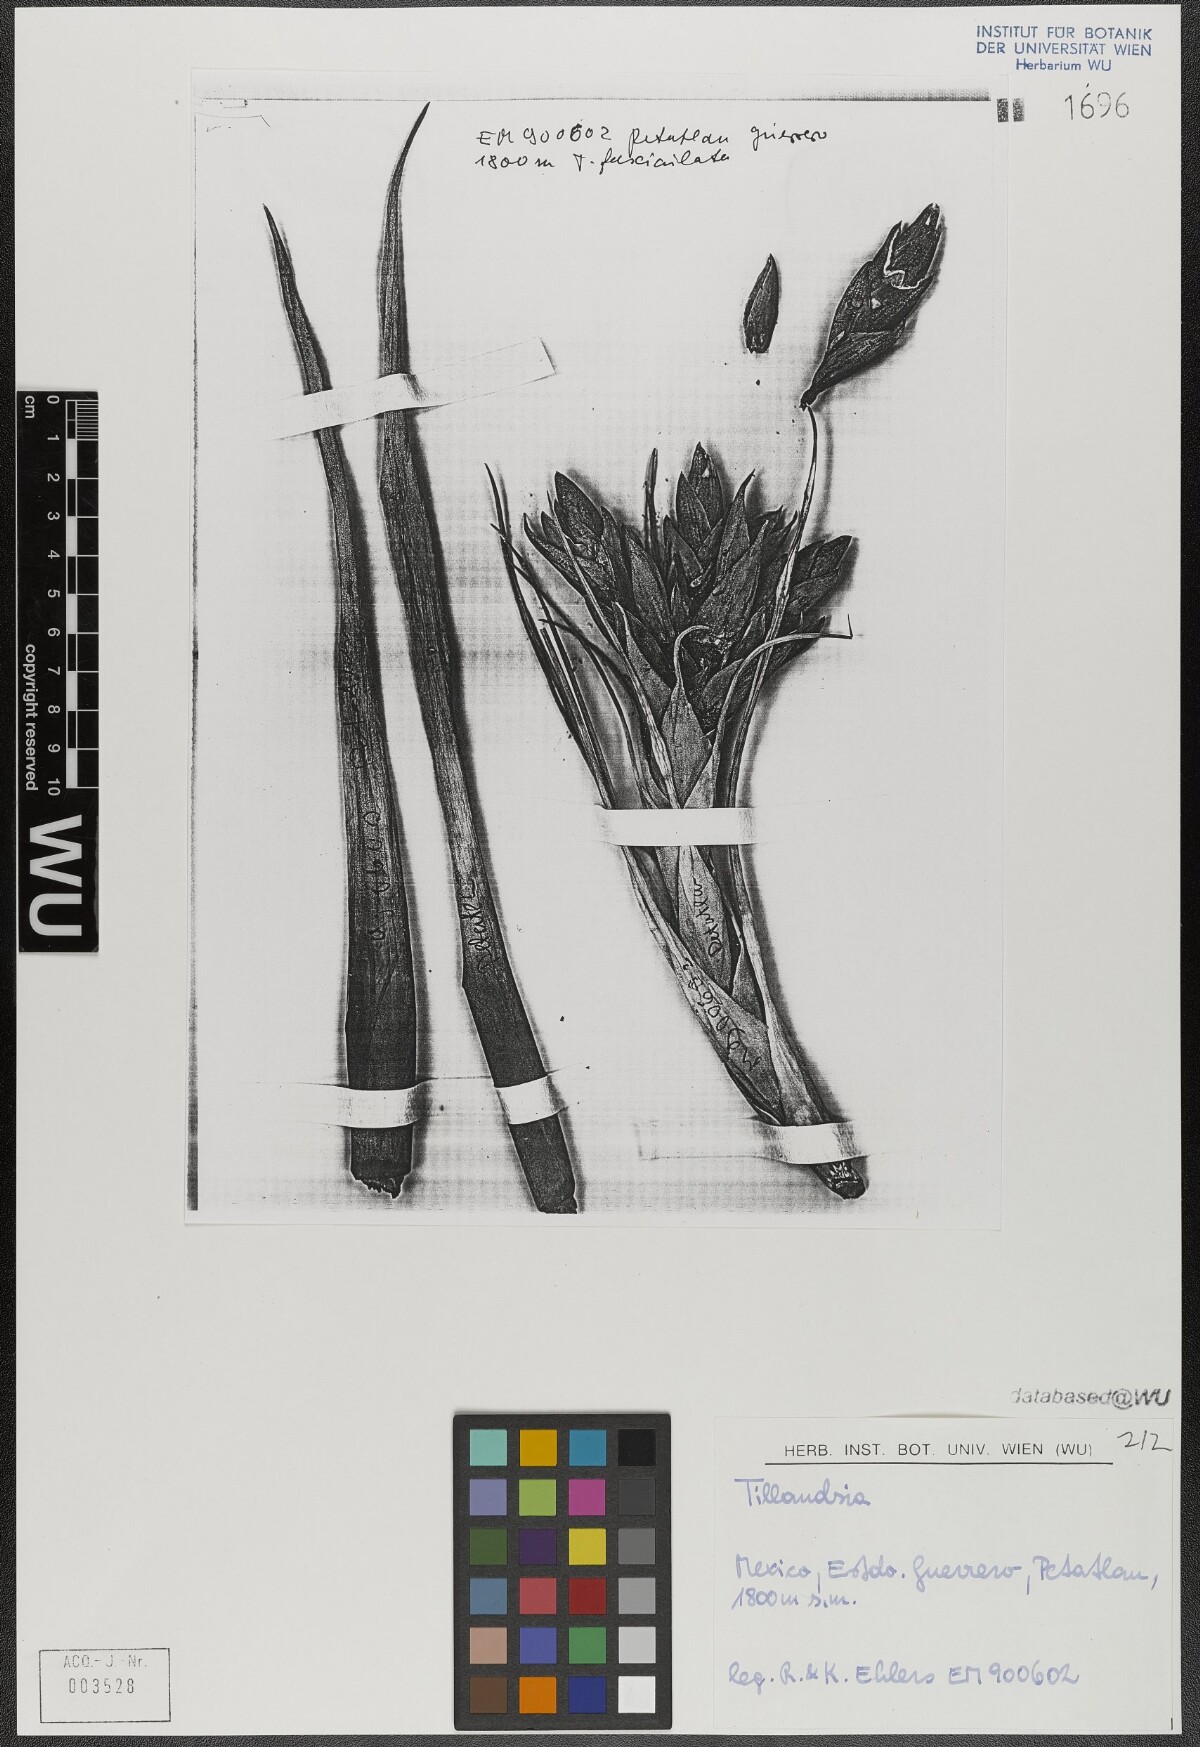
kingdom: Plantae
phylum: Tracheophyta
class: Liliopsida
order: Poales
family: Bromeliaceae
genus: Tillandsia
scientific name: Tillandsia fasciculata
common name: Giant airplant
